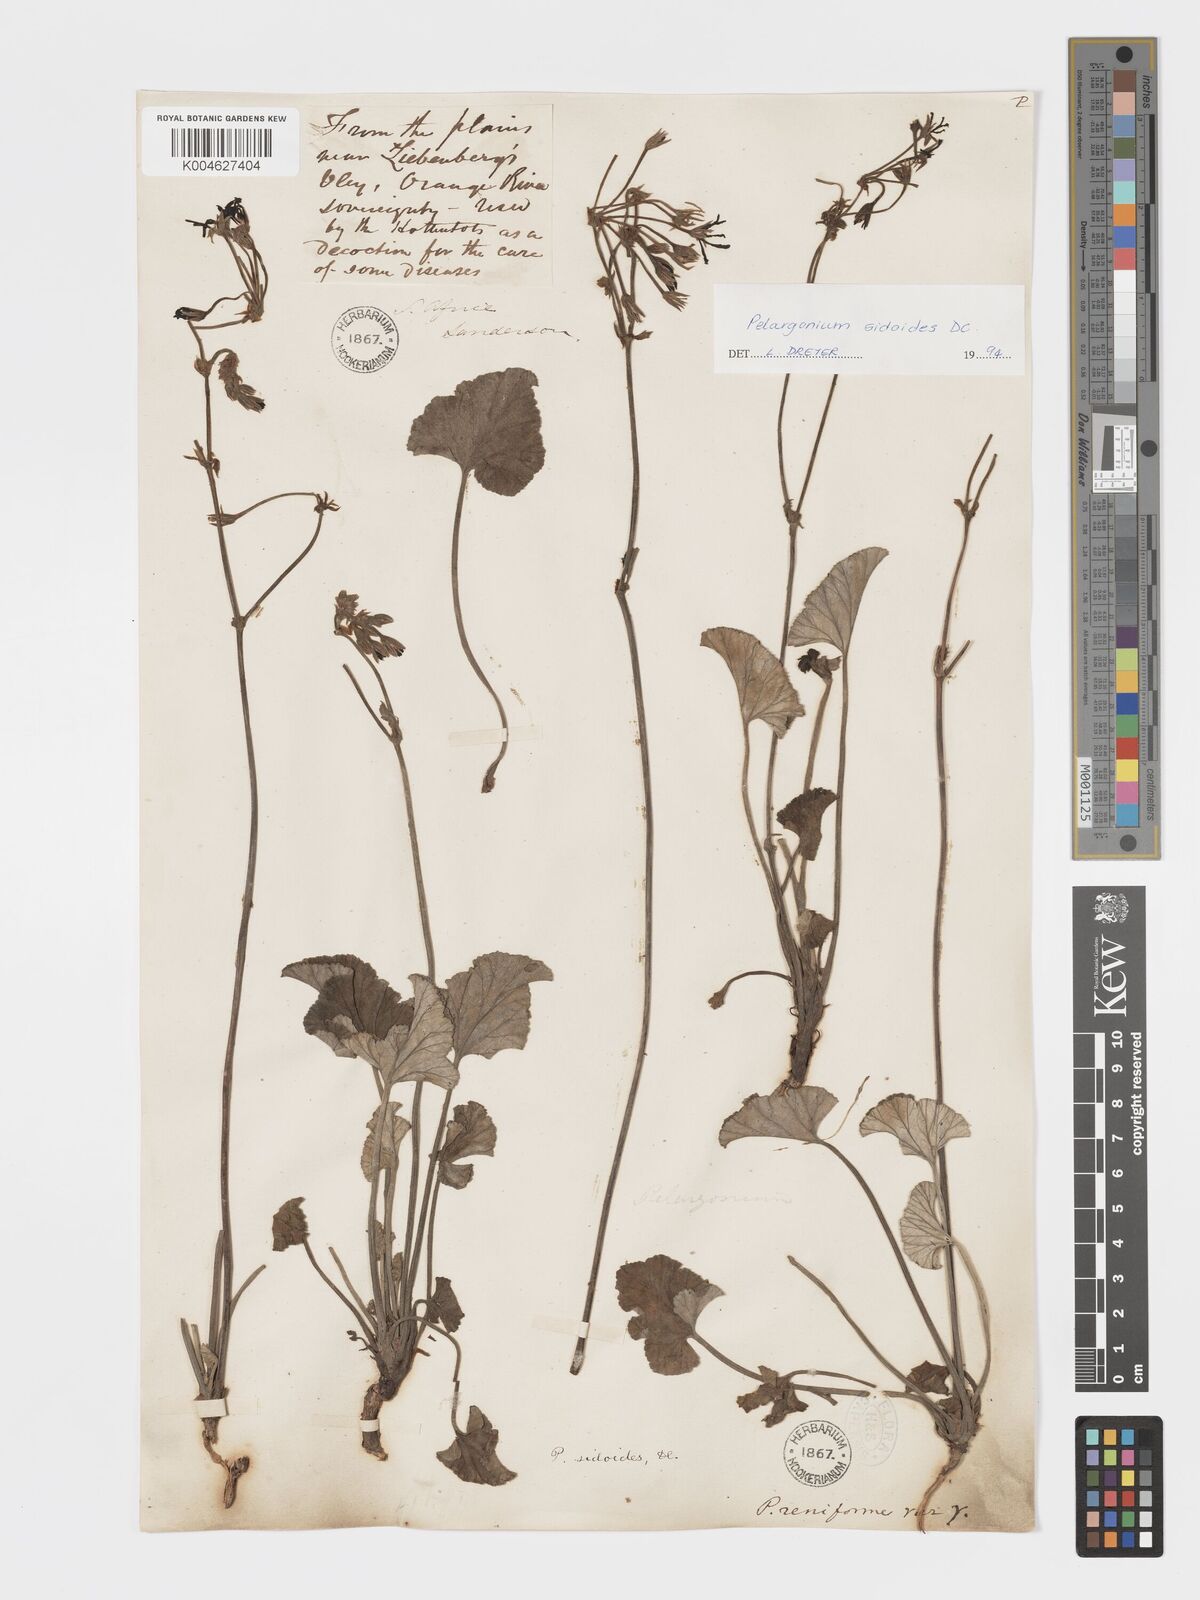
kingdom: Plantae
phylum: Tracheophyta
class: Magnoliopsida
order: Geraniales
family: Geraniaceae
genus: Pelargonium
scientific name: Pelargonium sidoides
